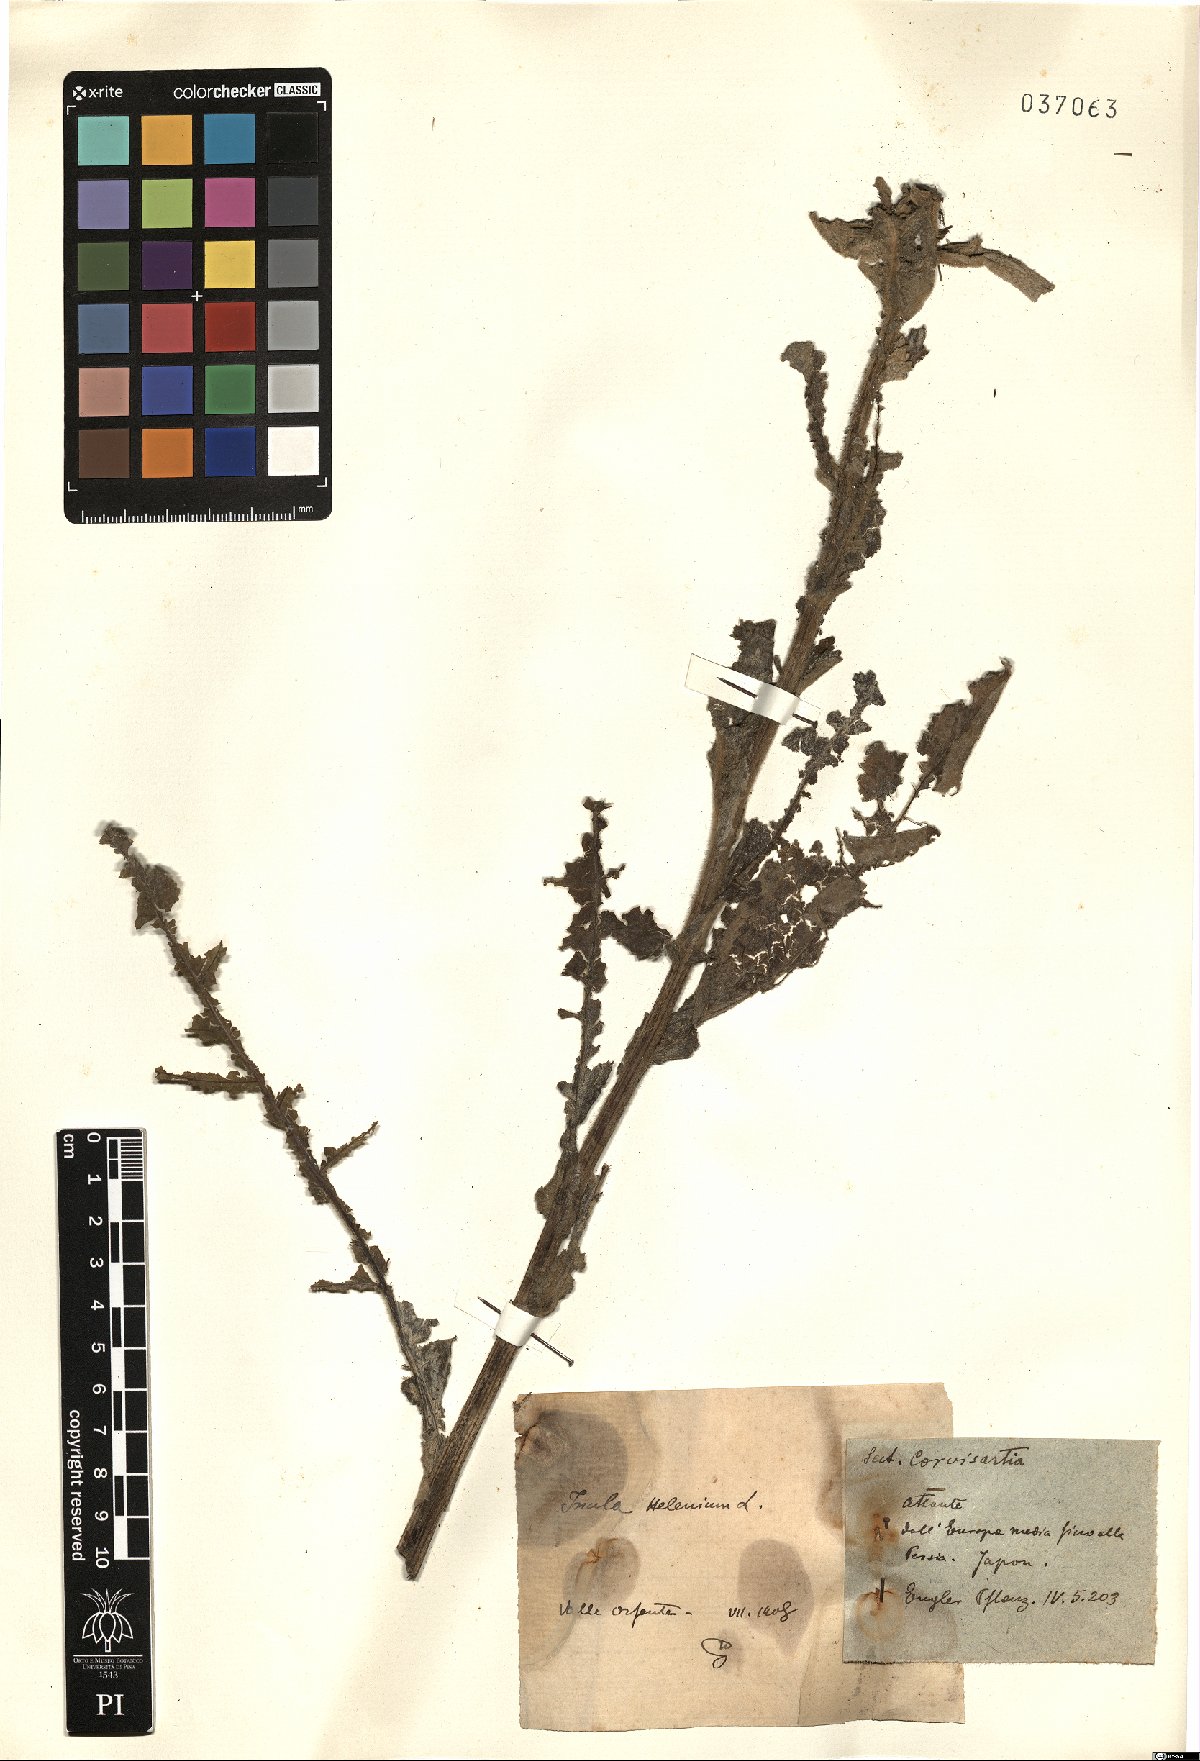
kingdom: Plantae
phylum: Tracheophyta
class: Magnoliopsida
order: Asterales
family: Asteraceae
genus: Inula
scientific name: Inula helenium
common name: Elecampane
